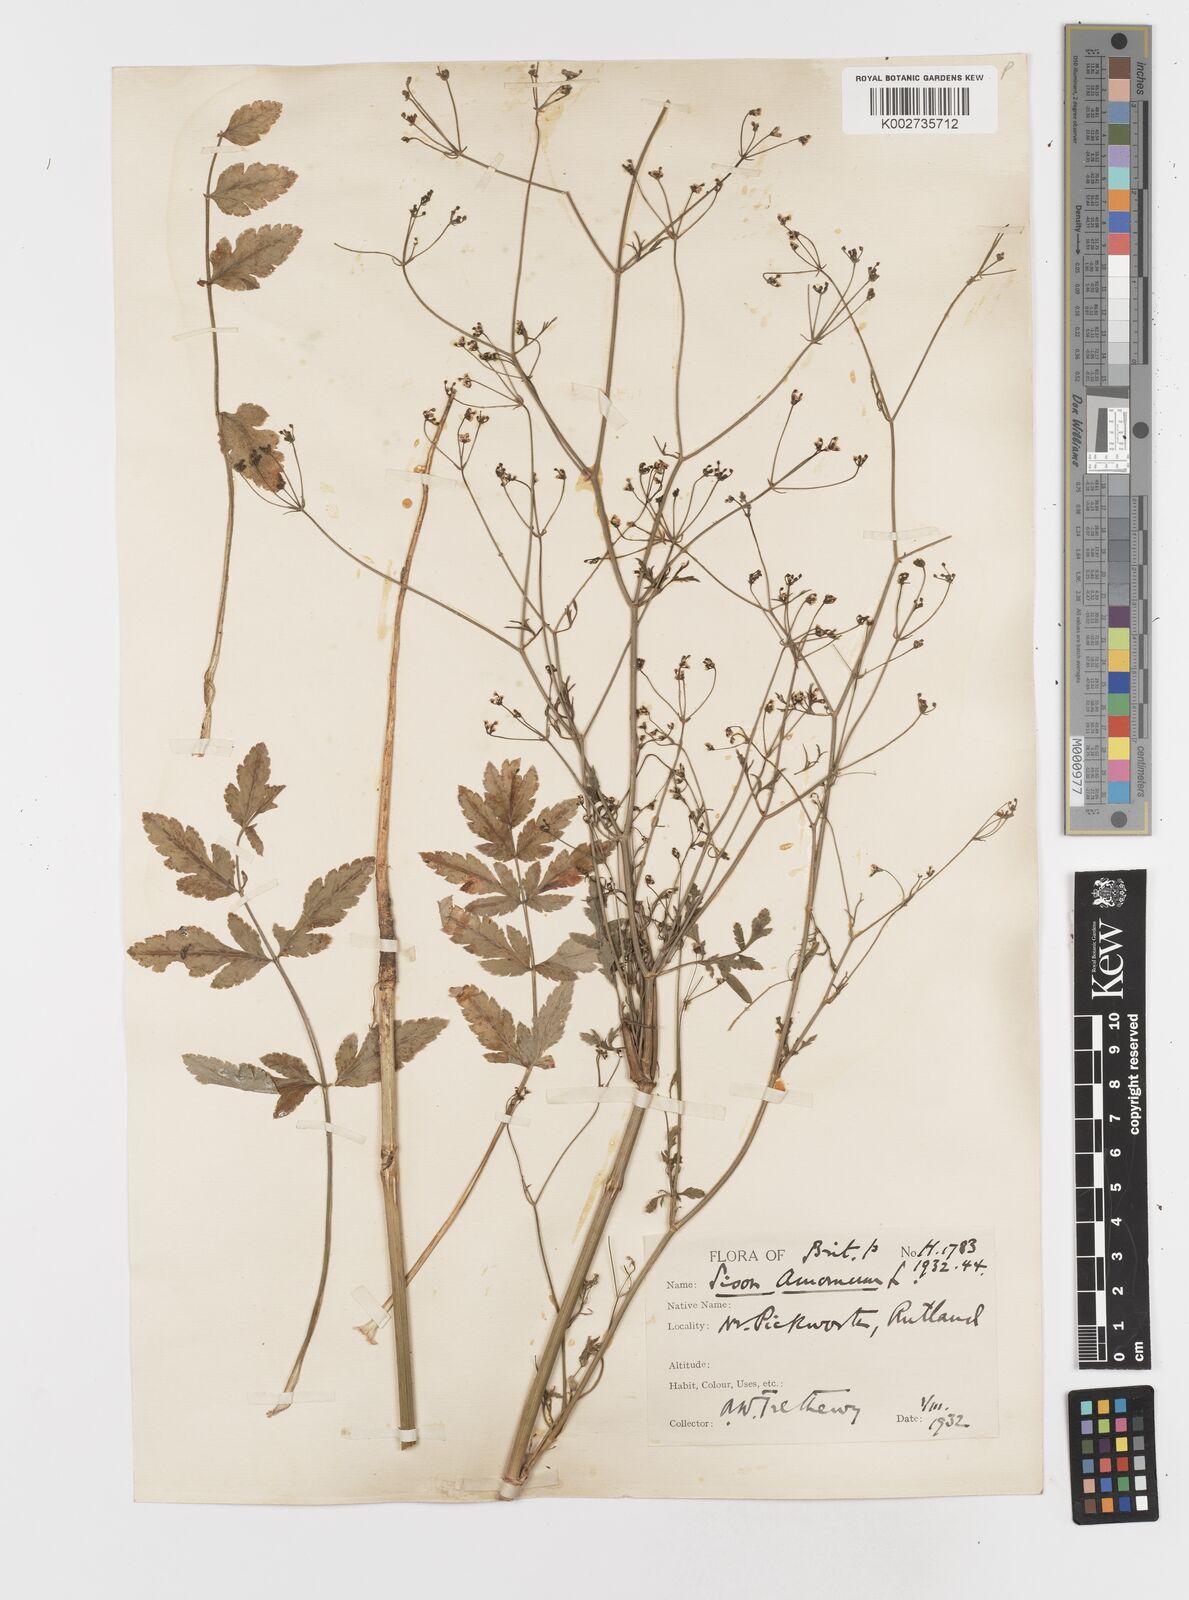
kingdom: Plantae
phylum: Tracheophyta
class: Magnoliopsida
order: Apiales
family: Apiaceae
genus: Sison
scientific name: Sison amomum
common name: Stone-parsley
